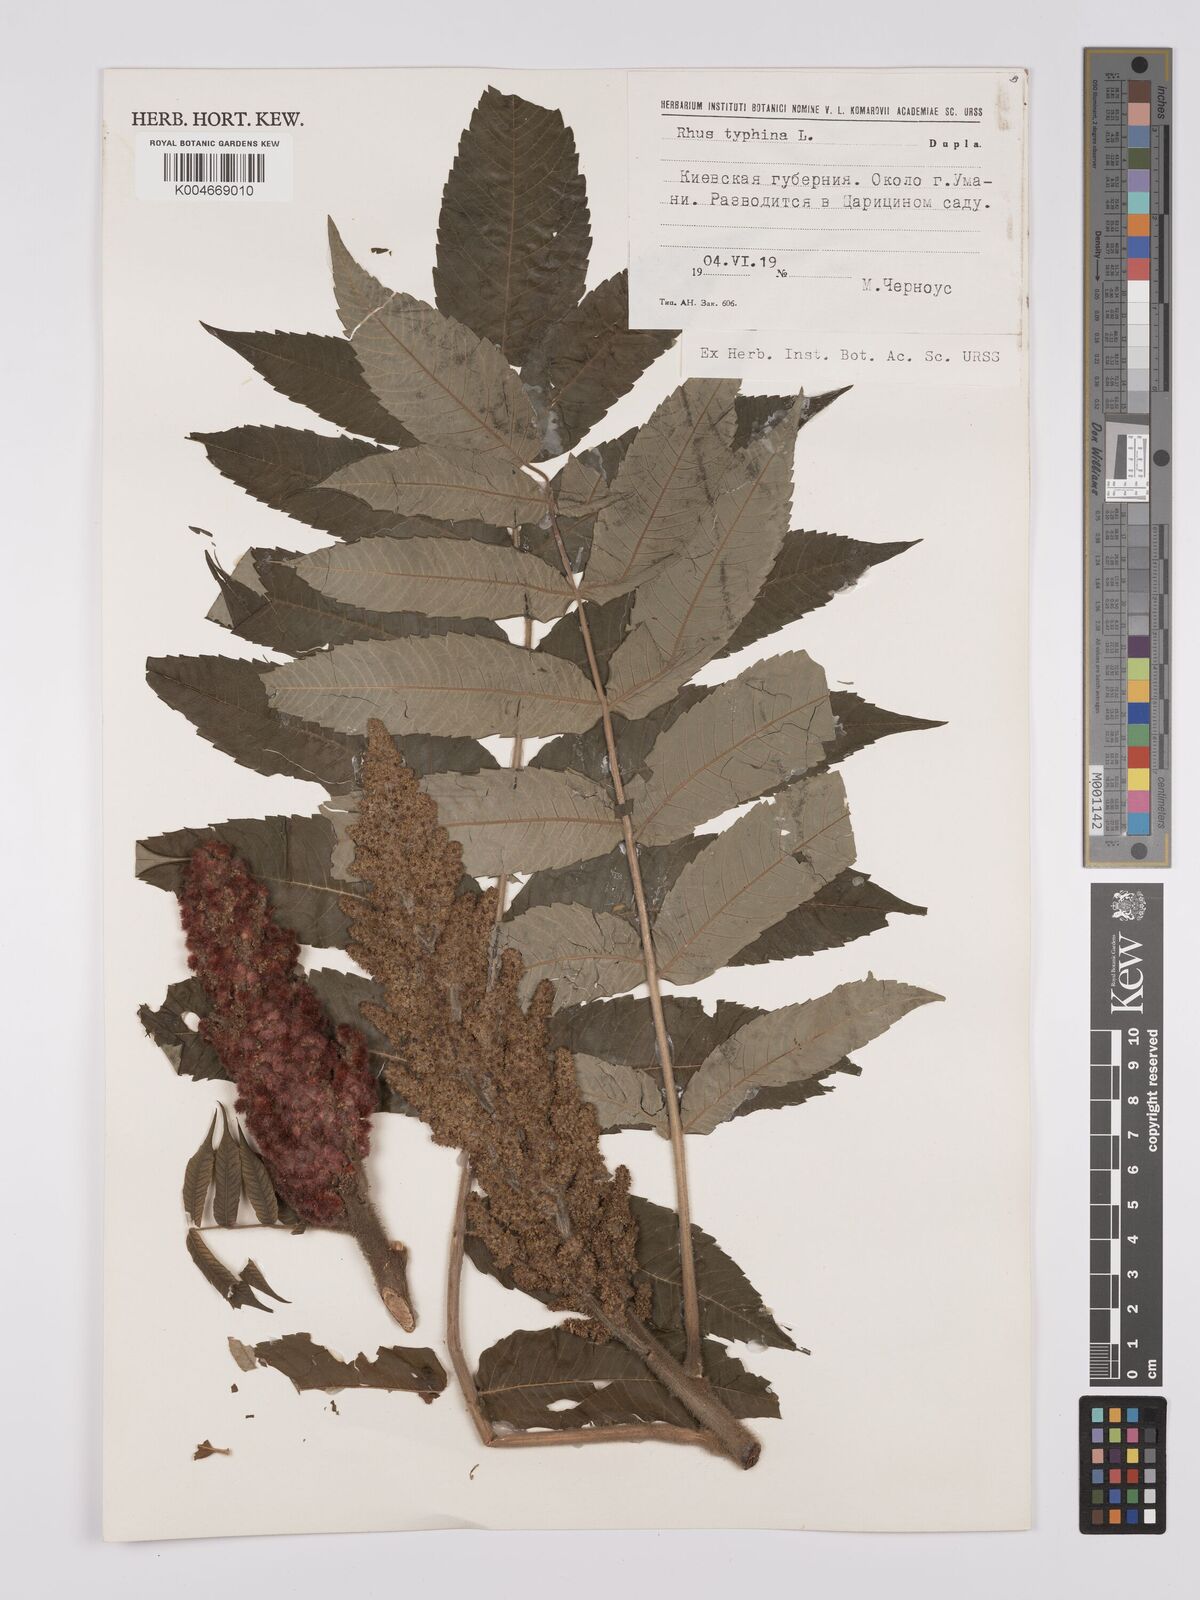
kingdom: Plantae
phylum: Tracheophyta
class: Magnoliopsida
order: Sapindales
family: Anacardiaceae
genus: Rhus
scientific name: Rhus typhina
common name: Staghorn sumac
